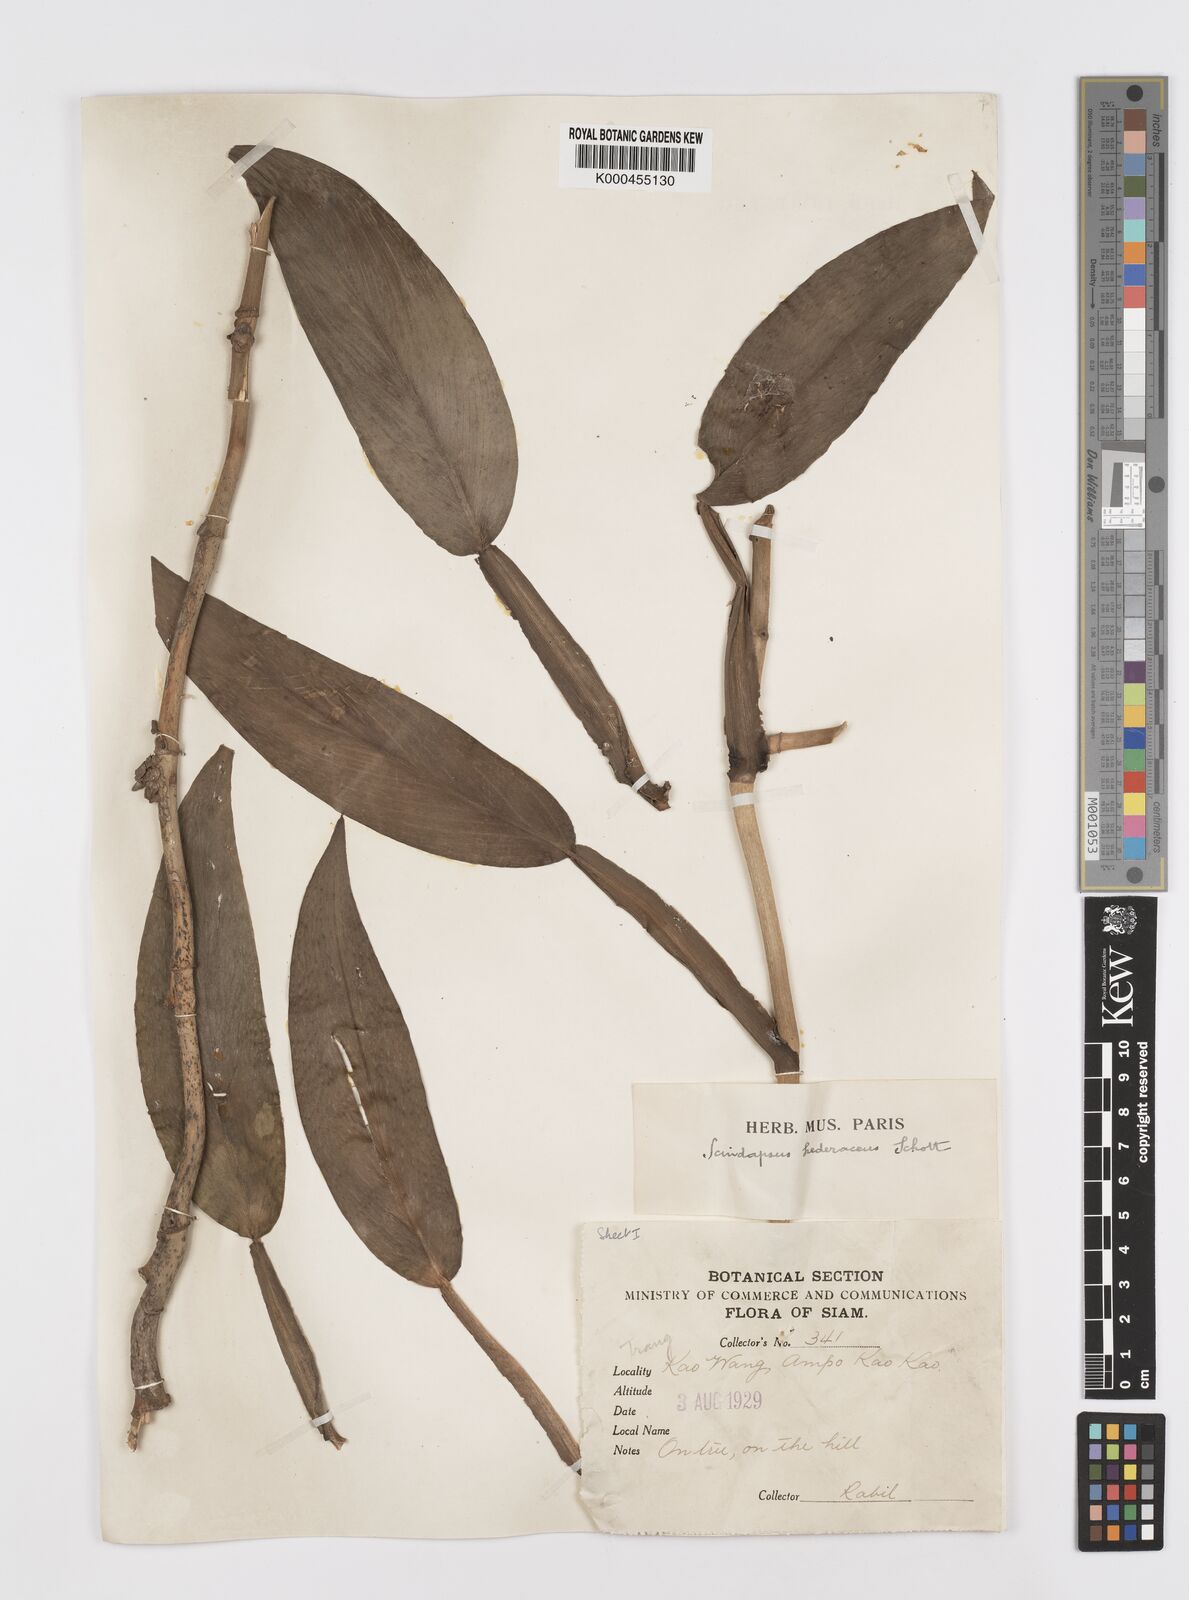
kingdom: Plantae
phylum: Tracheophyta
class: Liliopsida
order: Alismatales
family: Araceae
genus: Scindapsus
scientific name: Scindapsus hederaceus
